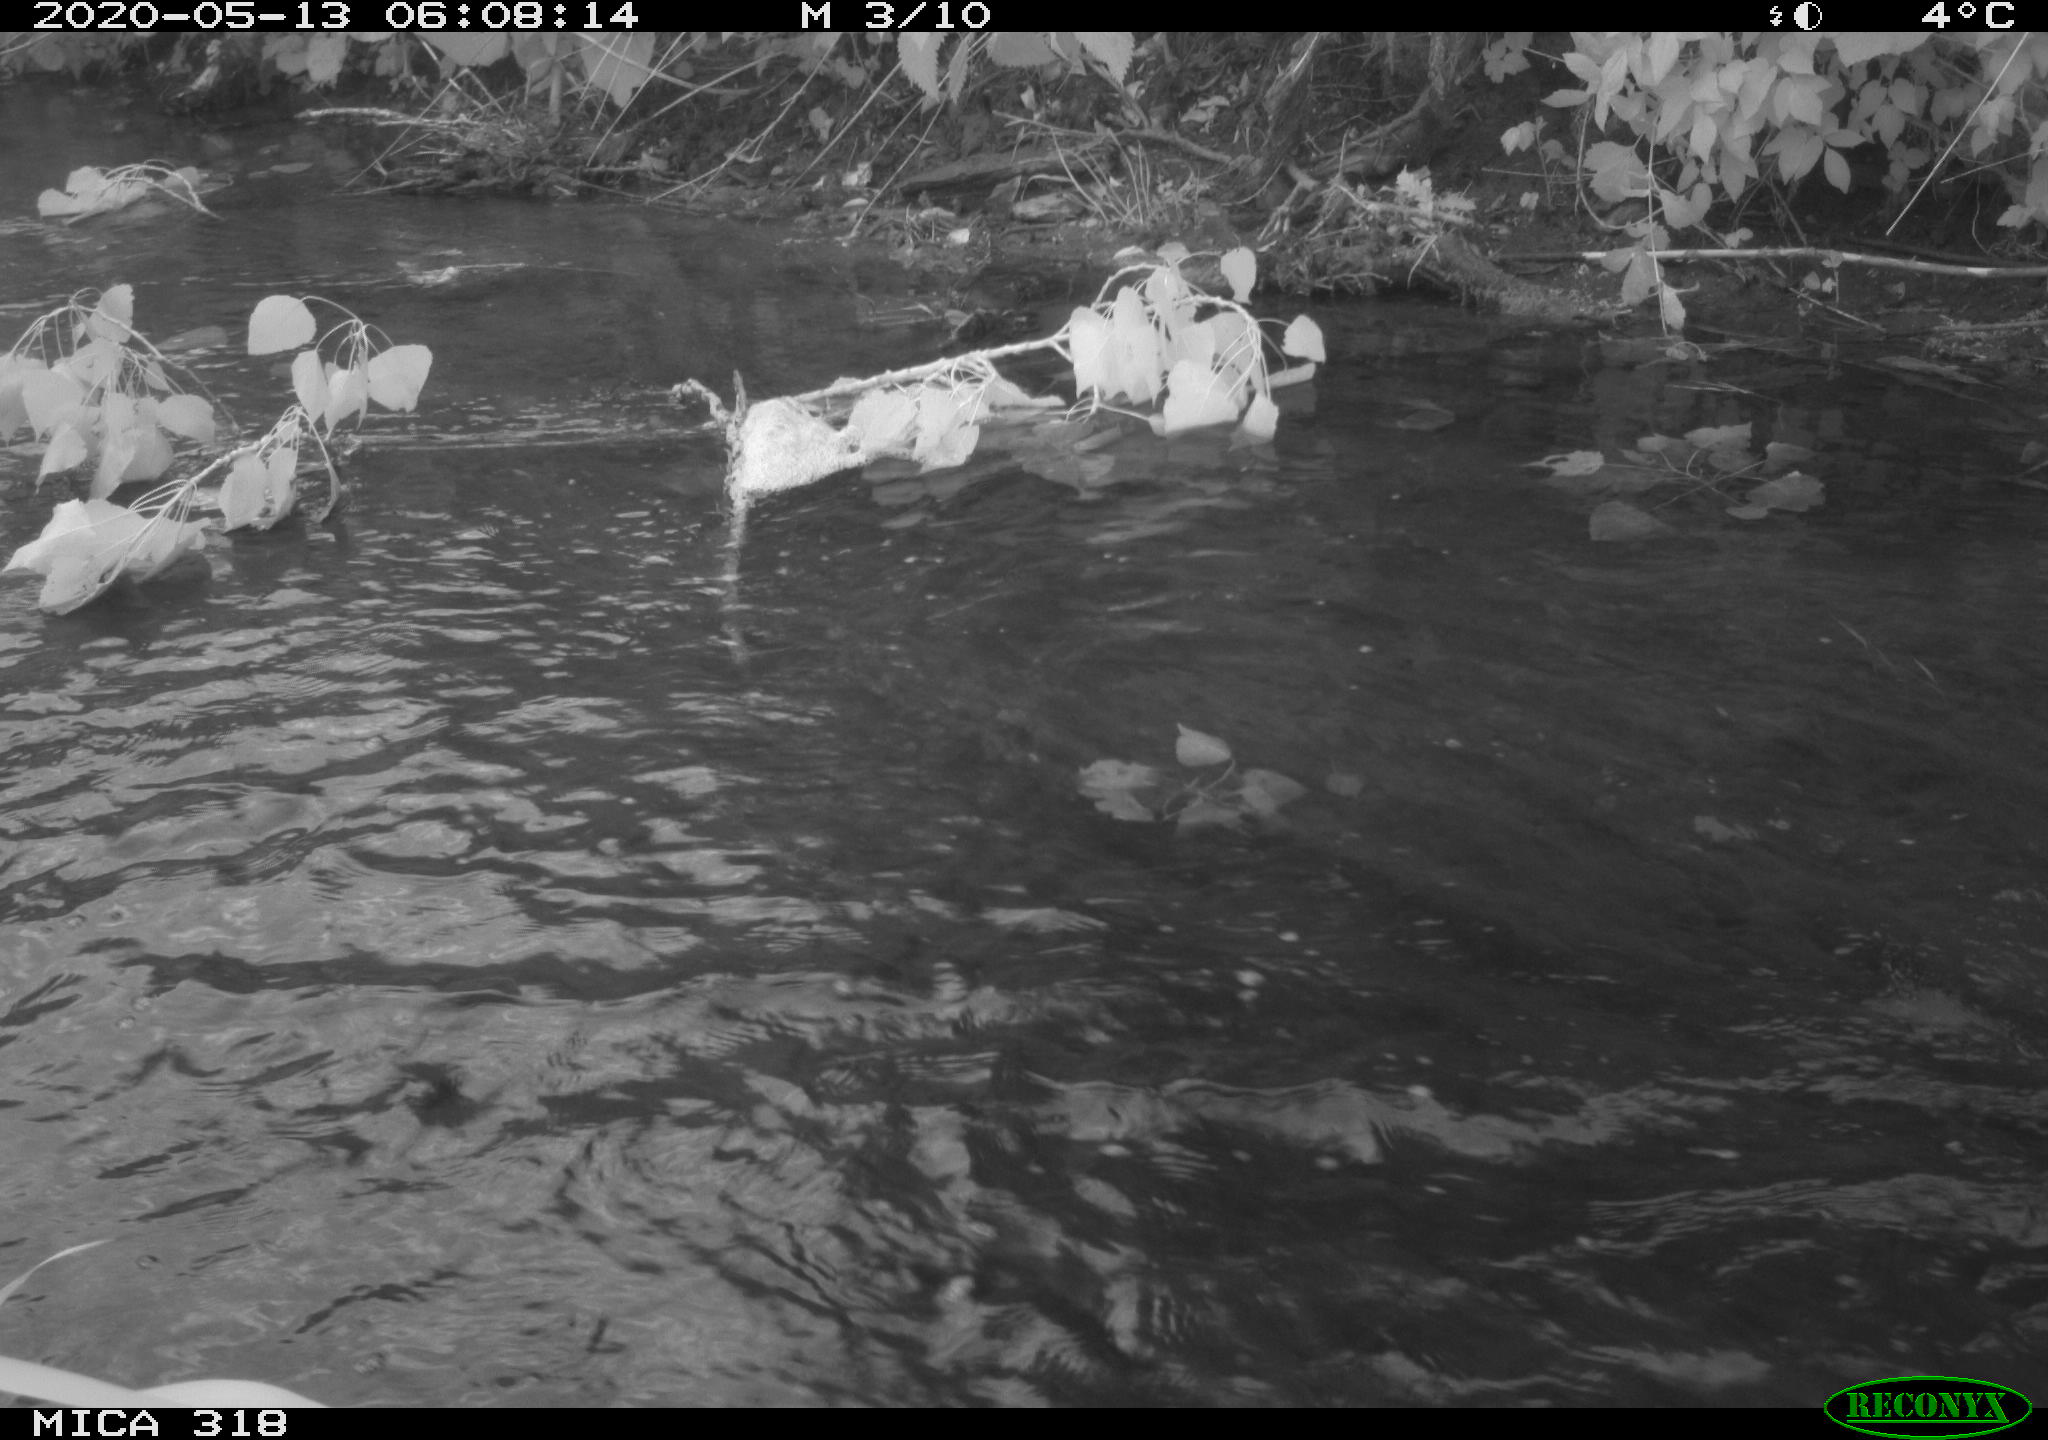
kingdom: Animalia
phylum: Chordata
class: Aves
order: Anseriformes
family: Anatidae
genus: Anas
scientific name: Anas platyrhynchos
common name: Mallard
